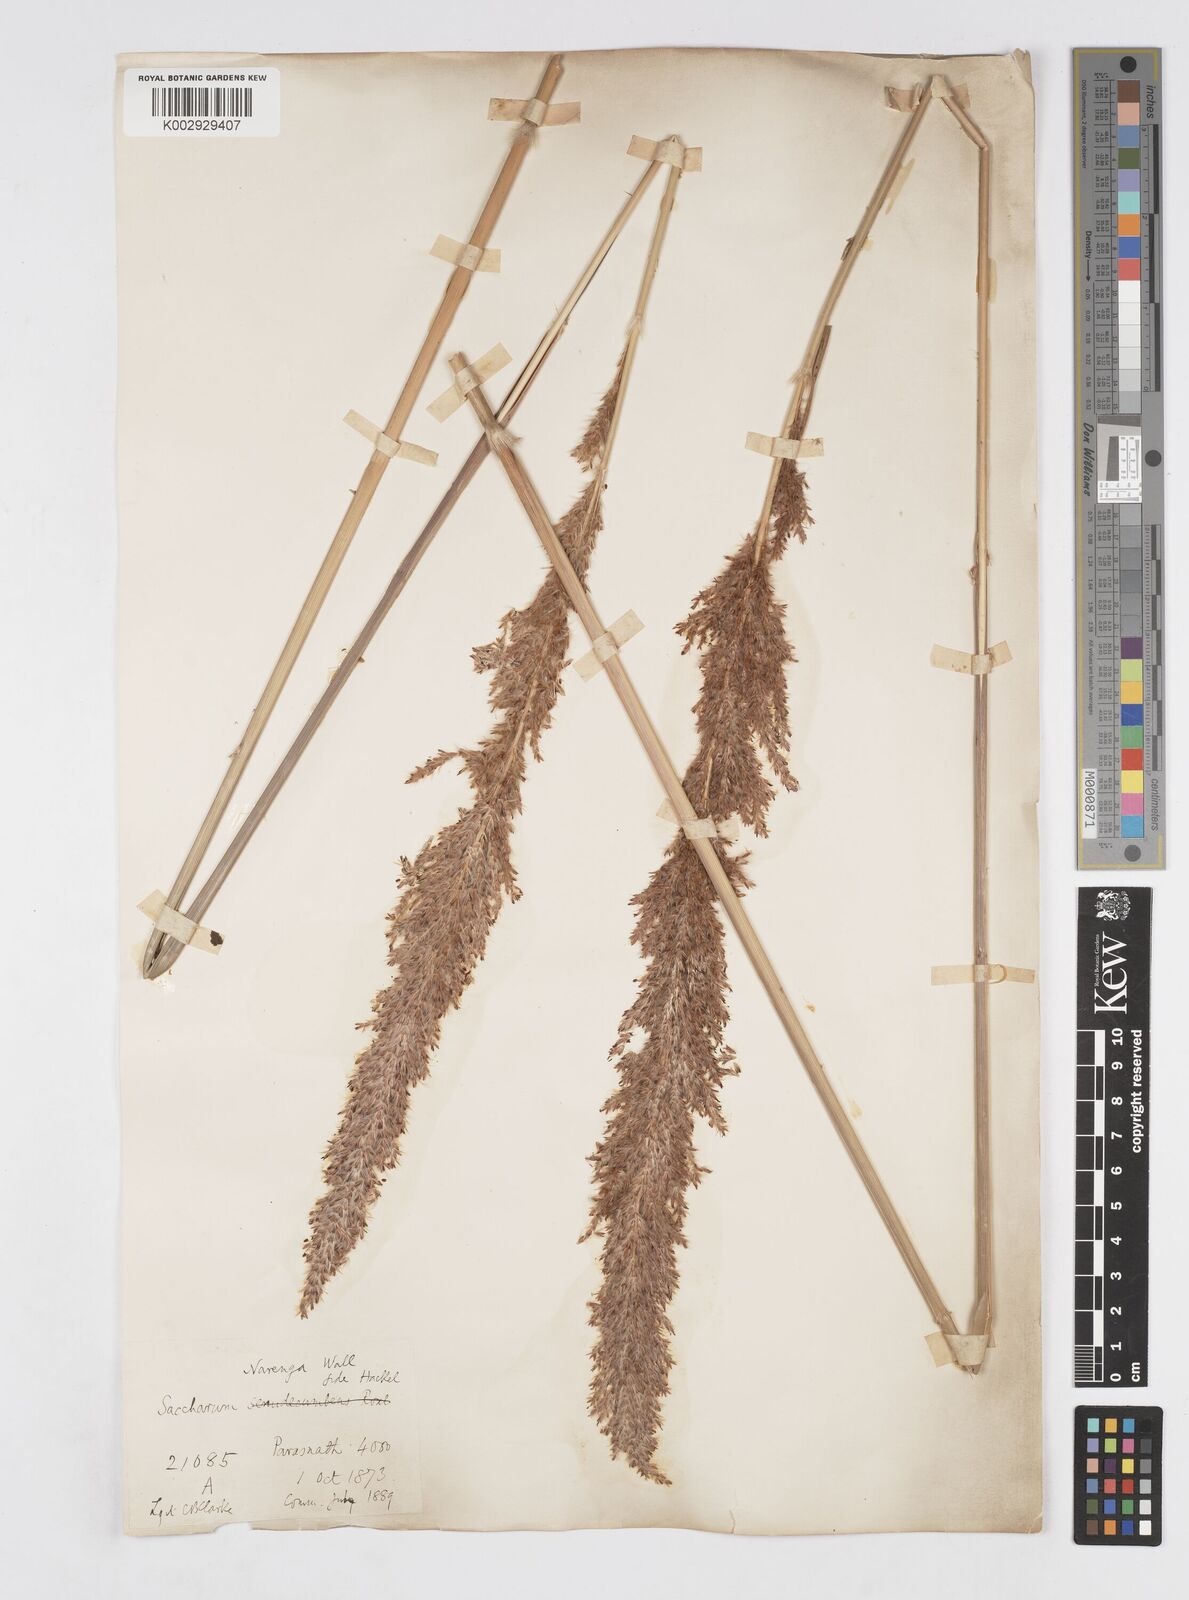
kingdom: Plantae
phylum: Tracheophyta
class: Liliopsida
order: Poales
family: Poaceae
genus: Narenga
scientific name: Narenga porphyrocoma
